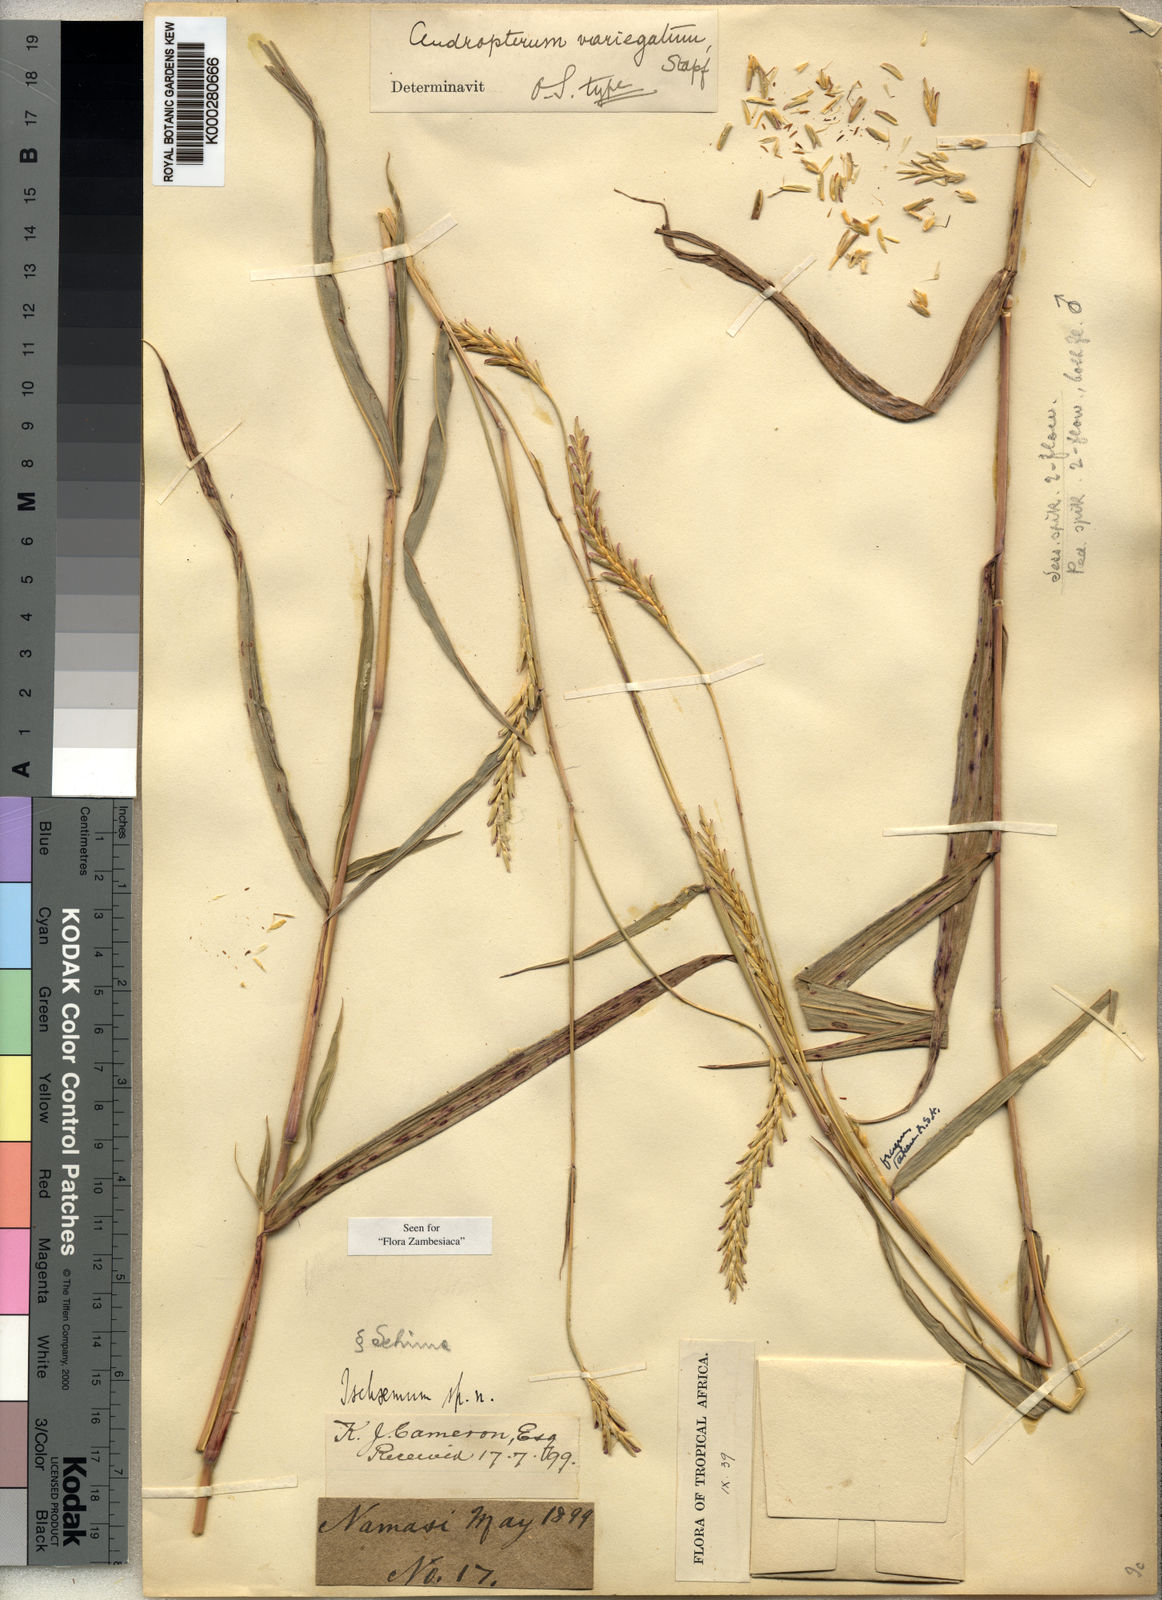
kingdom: Plantae
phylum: Tracheophyta
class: Liliopsida
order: Poales
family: Poaceae
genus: Andropterum
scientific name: Andropterum stolzii
